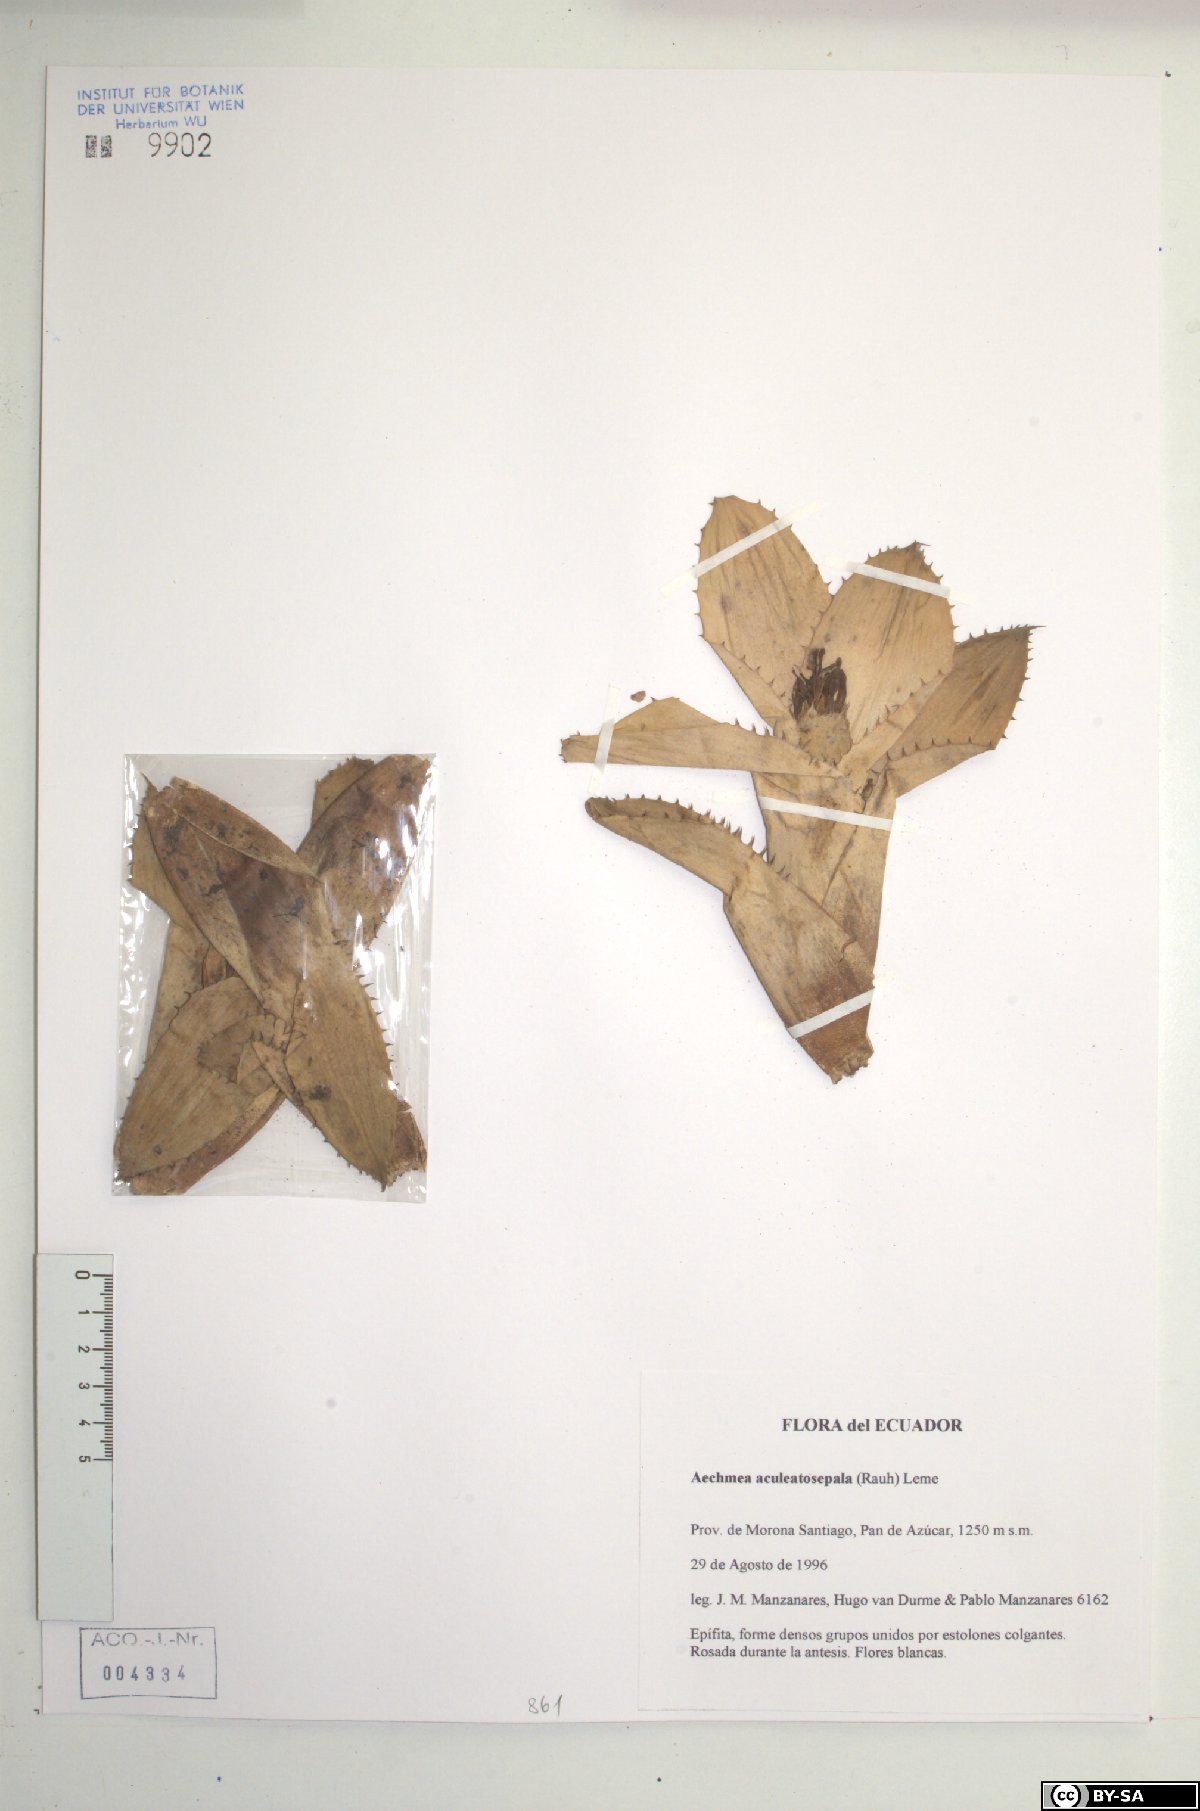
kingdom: Plantae
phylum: Tracheophyta
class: Liliopsida
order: Poales
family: Bromeliaceae
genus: Aechmea
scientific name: Aechmea aculeatosepala
